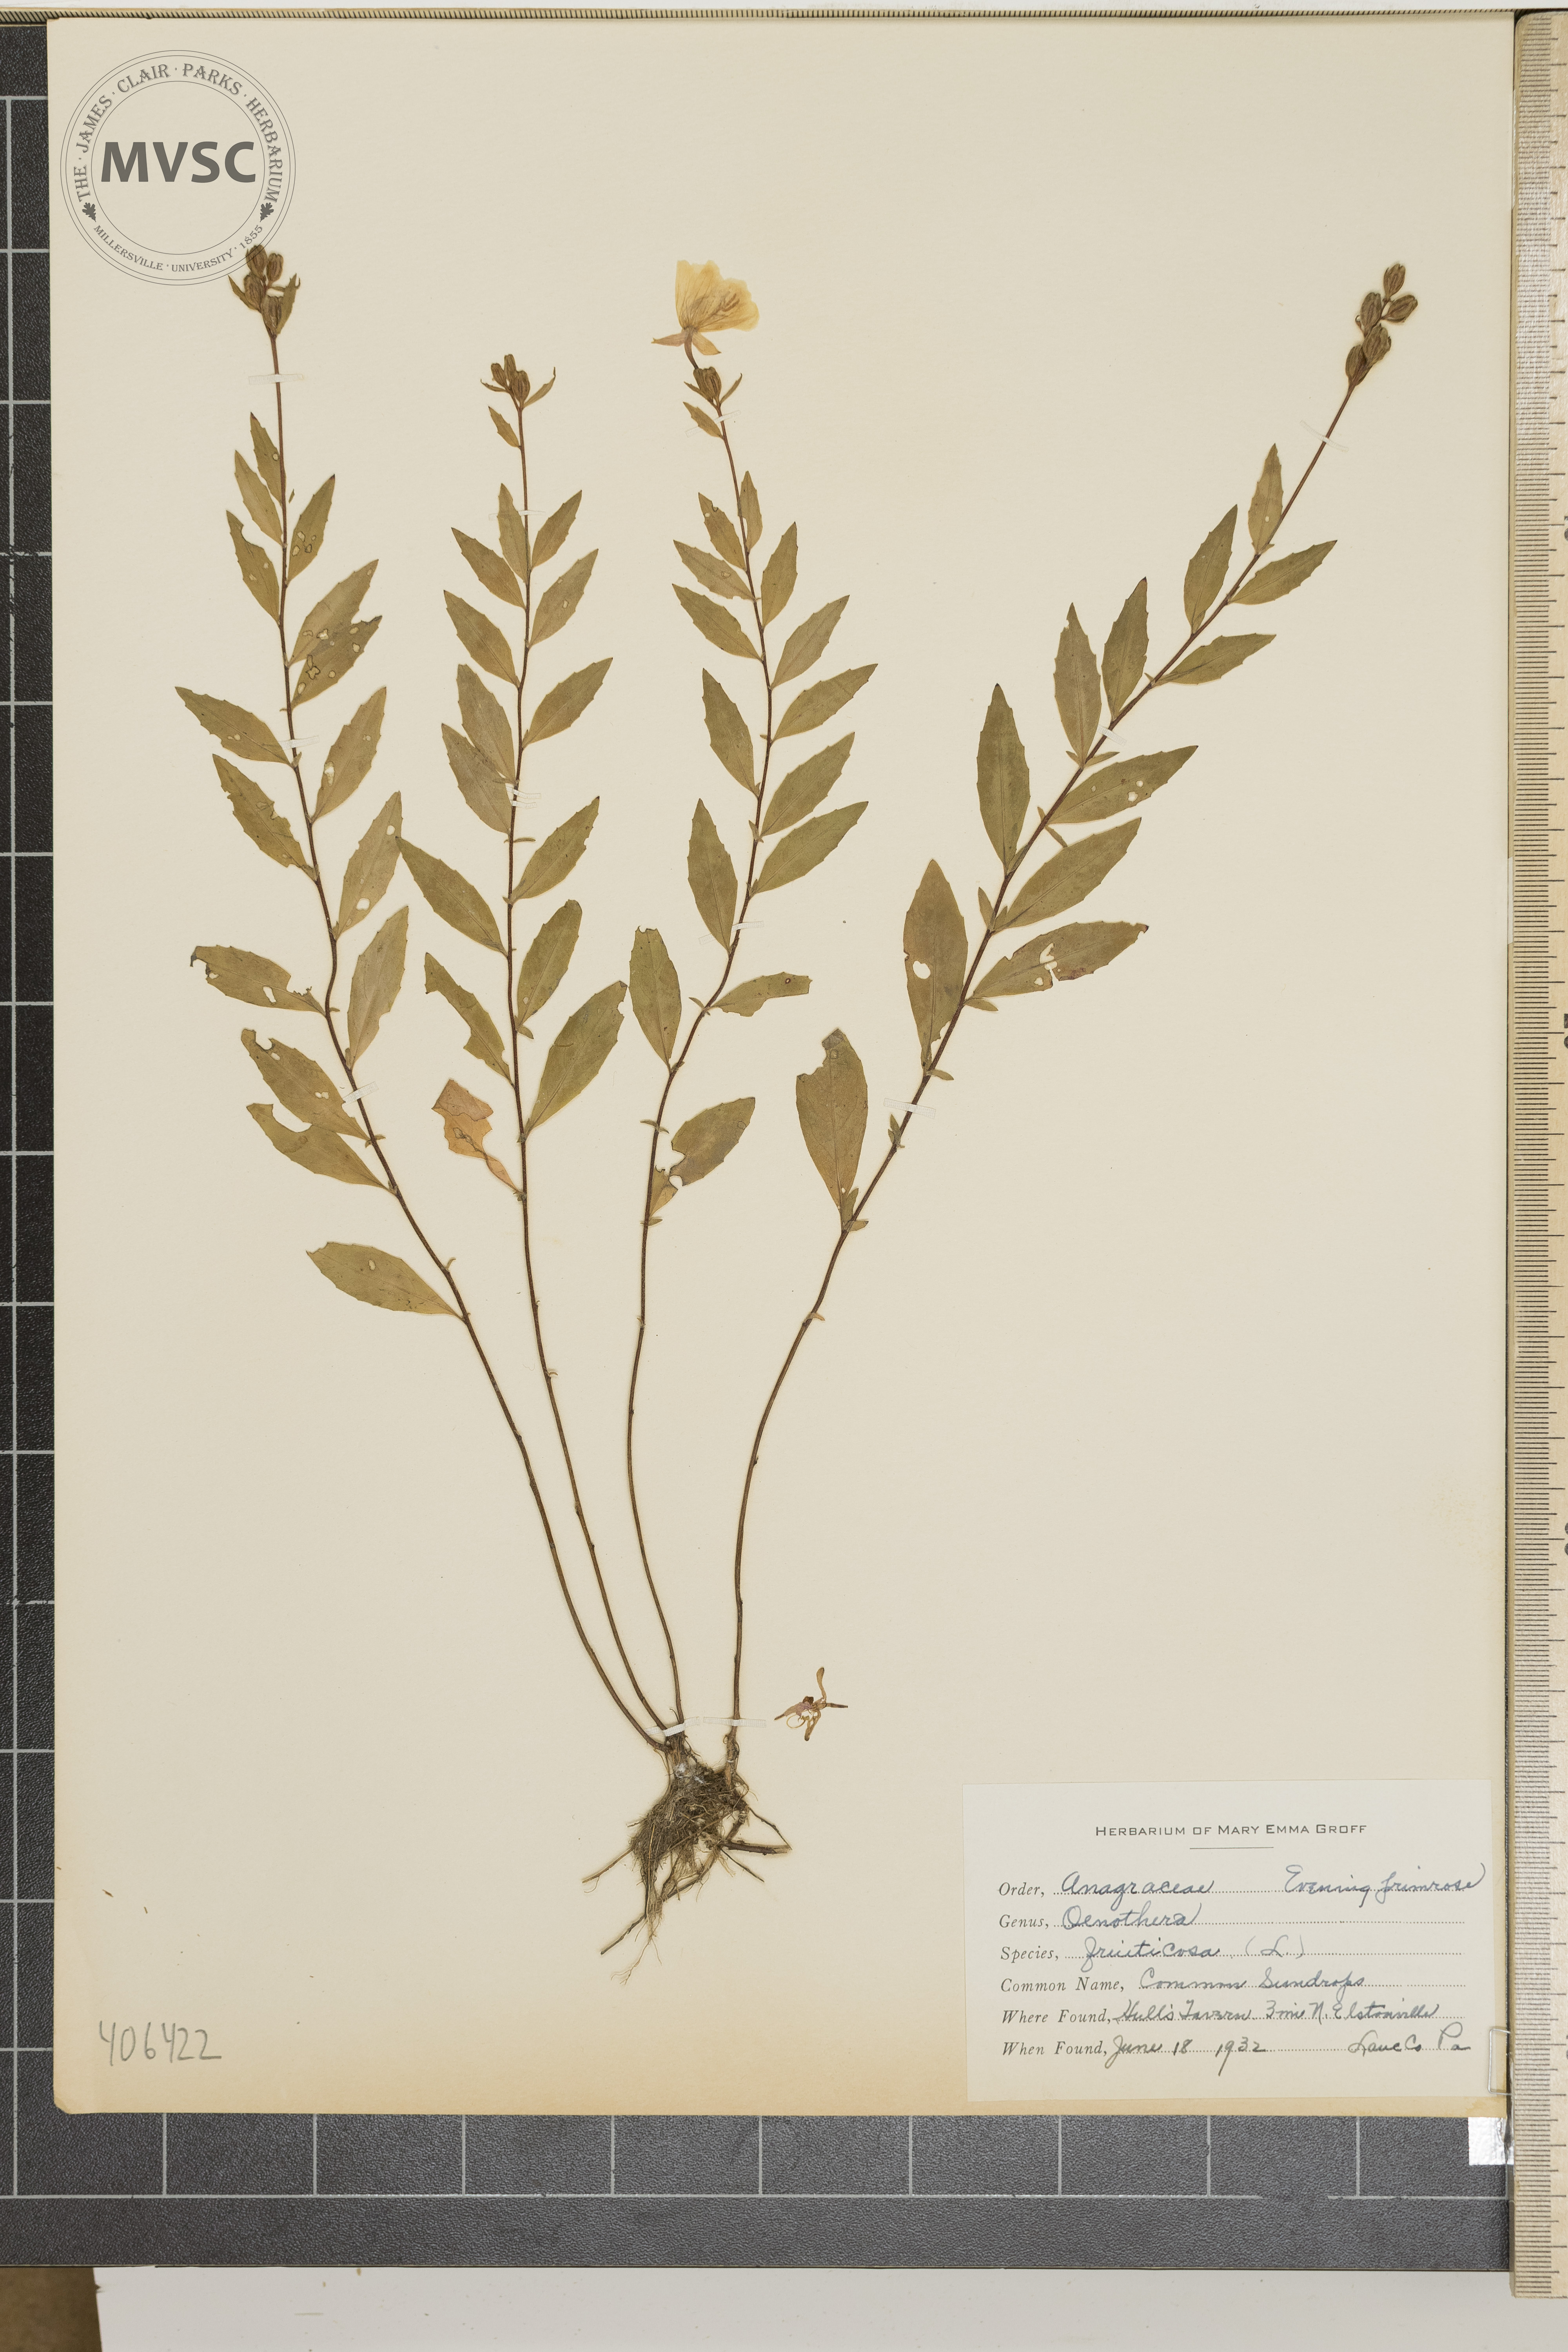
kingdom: Plantae
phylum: Tracheophyta
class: Magnoliopsida
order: Myrtales
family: Onagraceae
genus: Oenothera
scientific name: Oenothera fruticosa
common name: common sundrops
